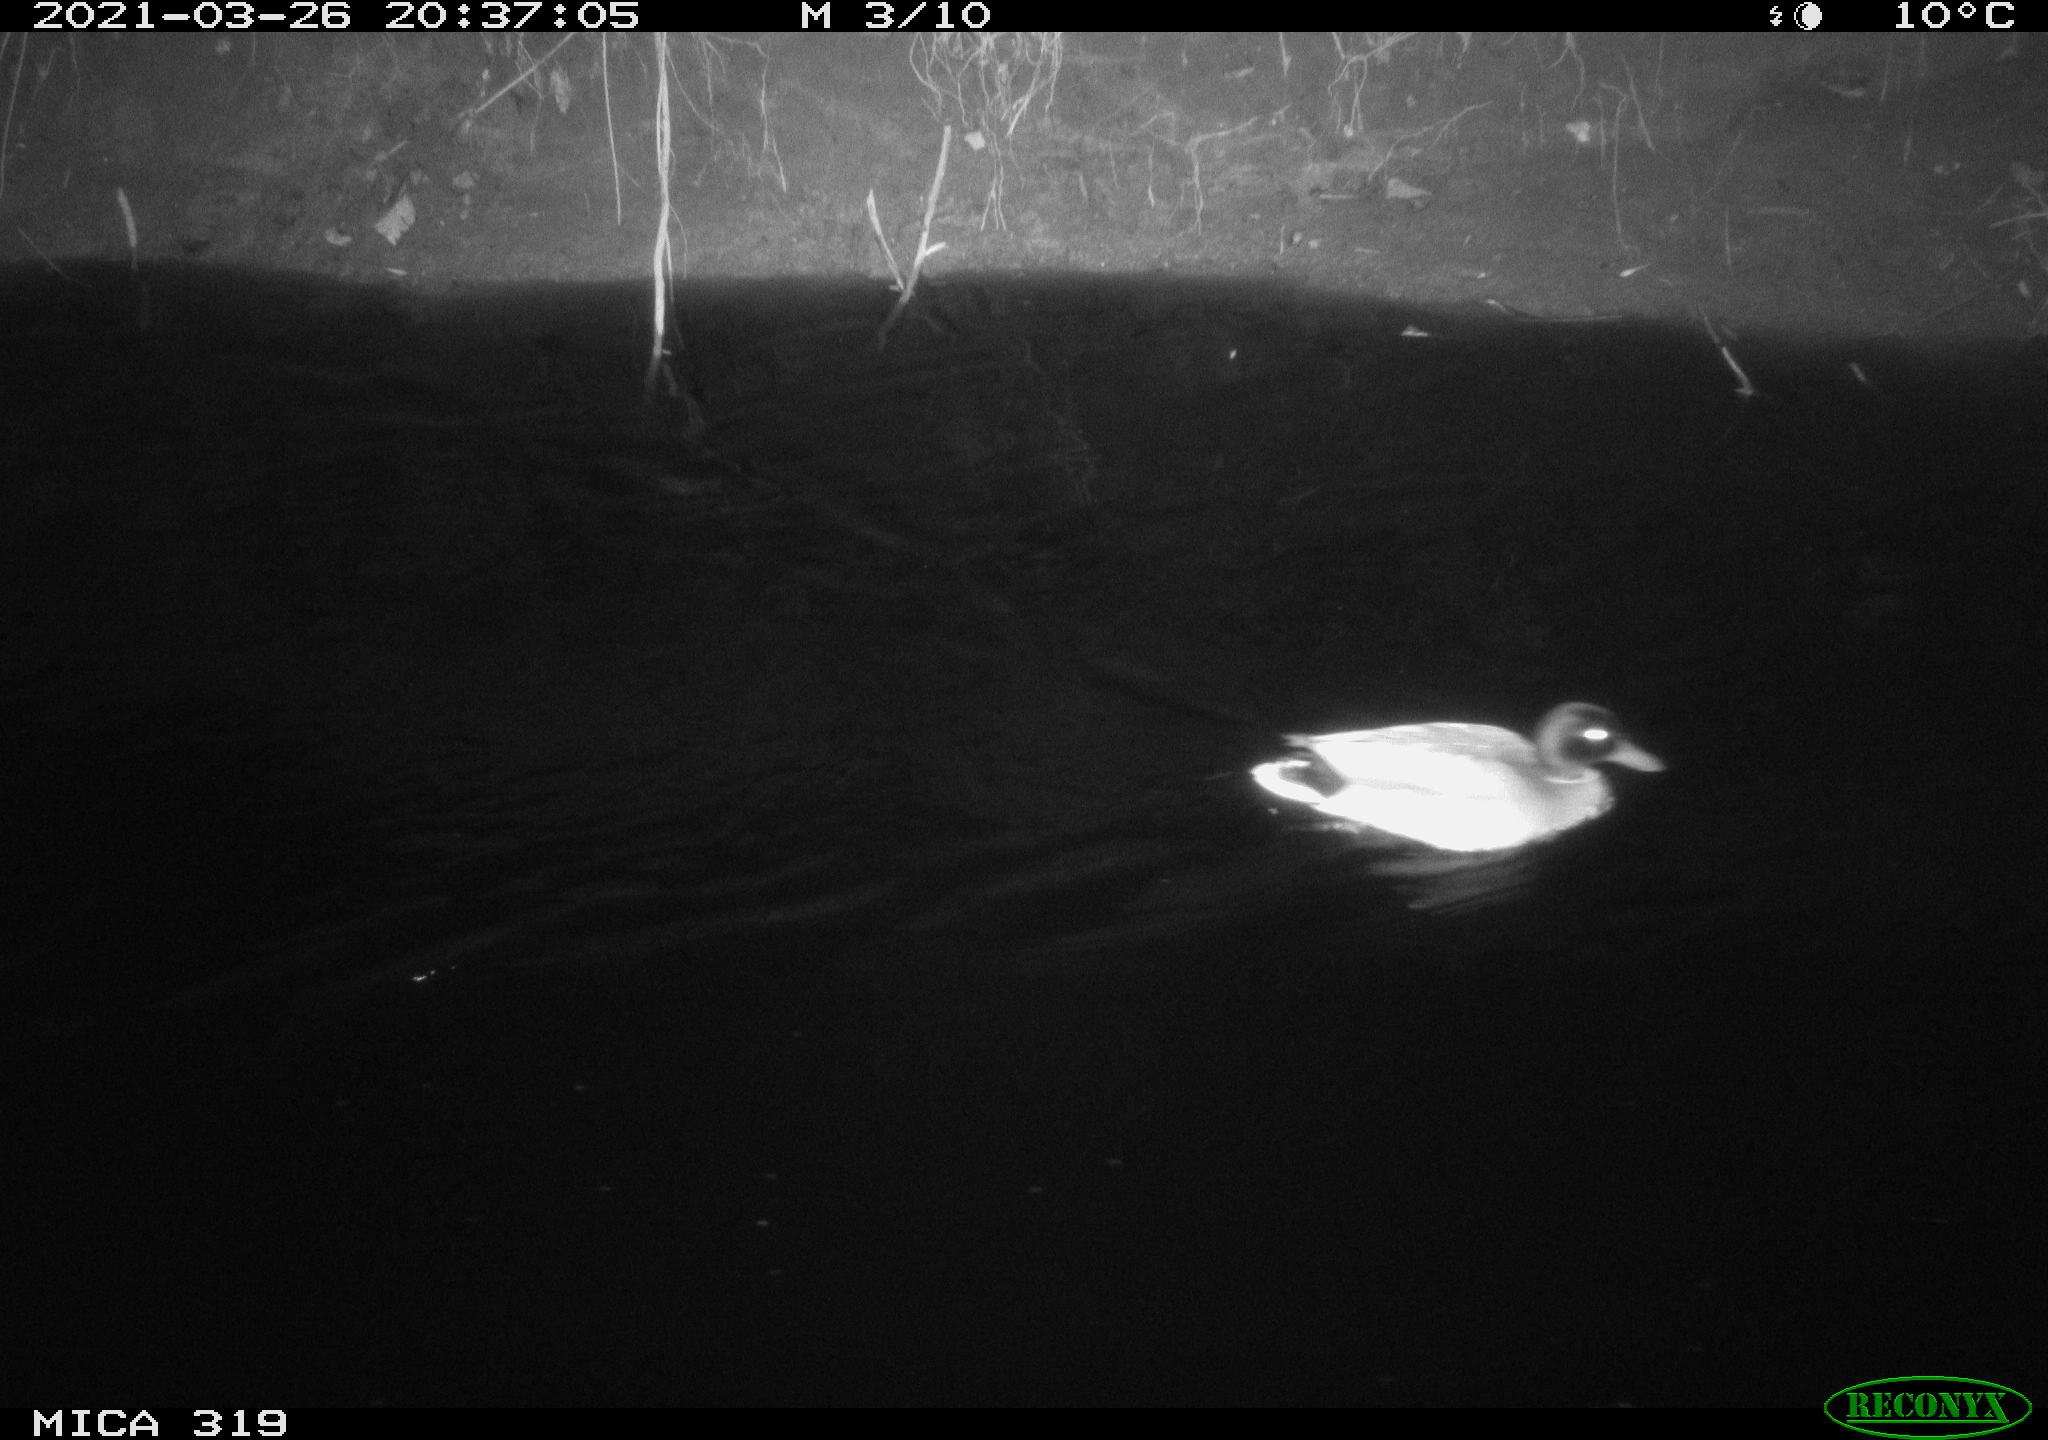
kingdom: Animalia
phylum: Chordata
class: Aves
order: Anseriformes
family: Anatidae
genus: Anas
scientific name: Anas platyrhynchos
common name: Mallard
